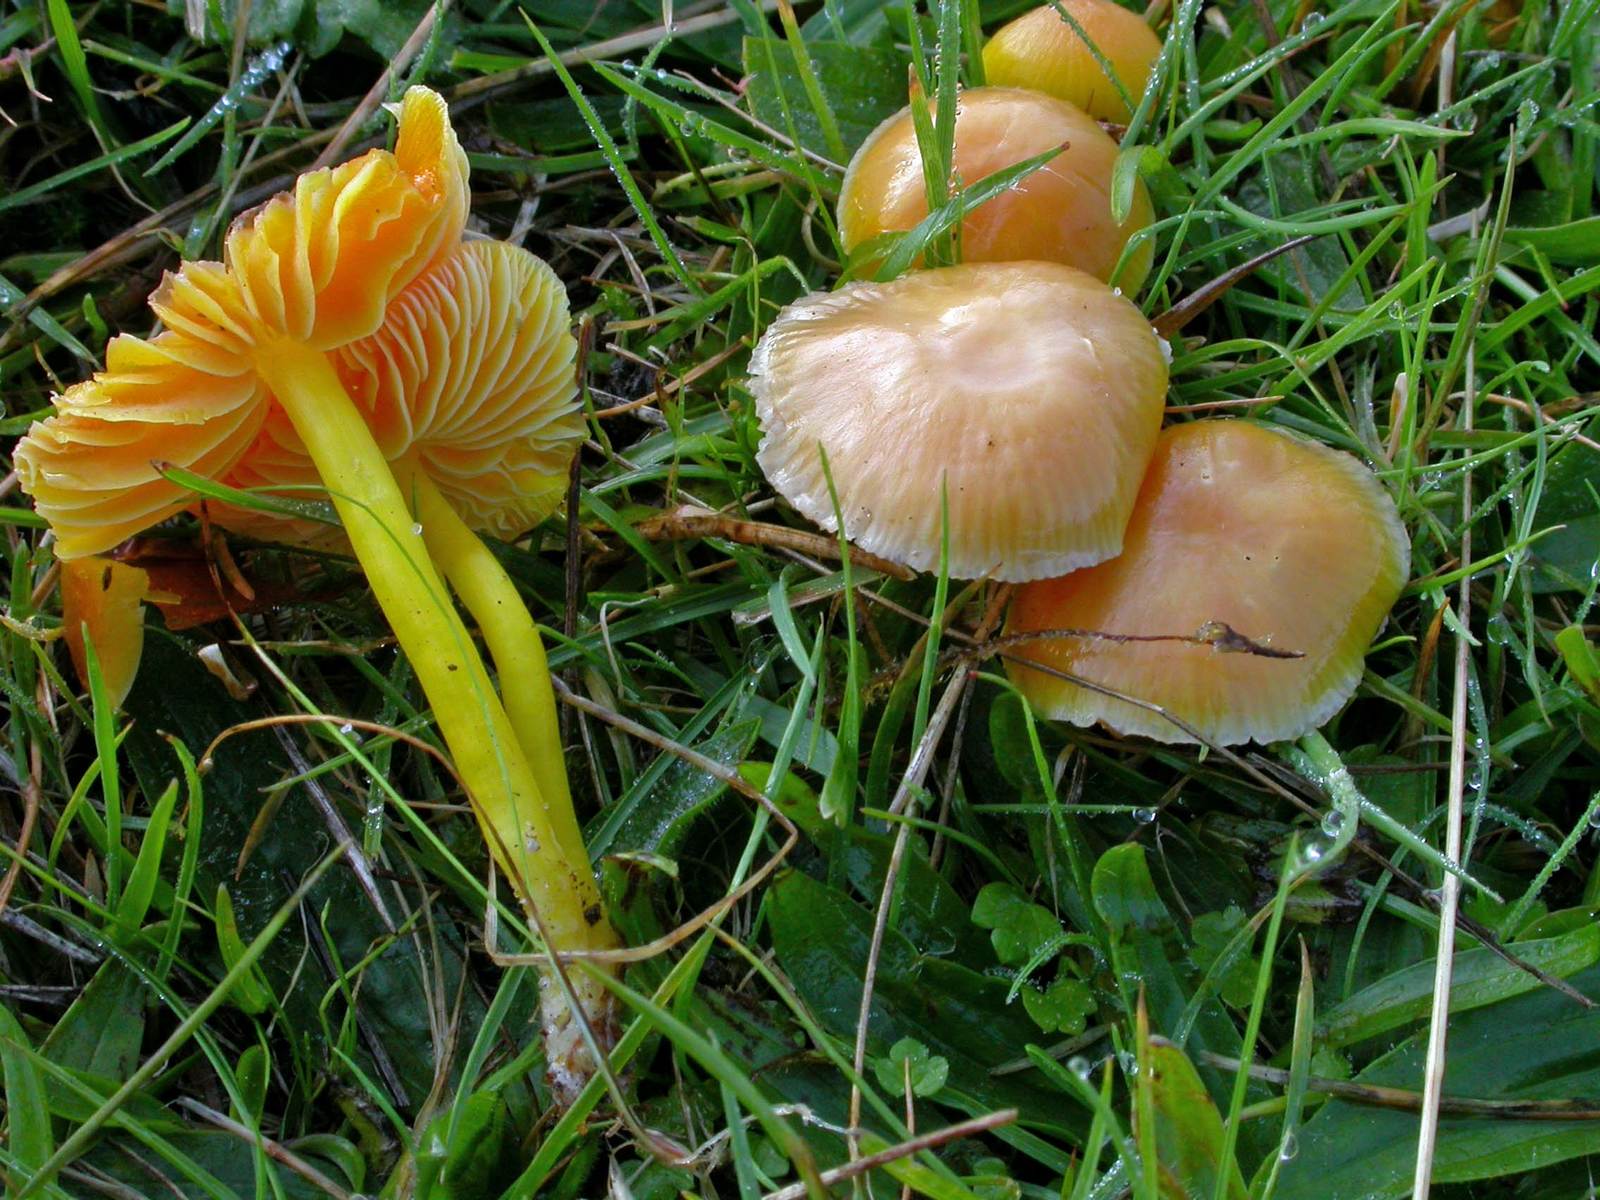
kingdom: Fungi
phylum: Basidiomycota
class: Agaricomycetes
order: Agaricales
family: Hygrophoraceae
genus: Hygrocybe
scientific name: Hygrocybe ceracea
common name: voksgul vokshat
